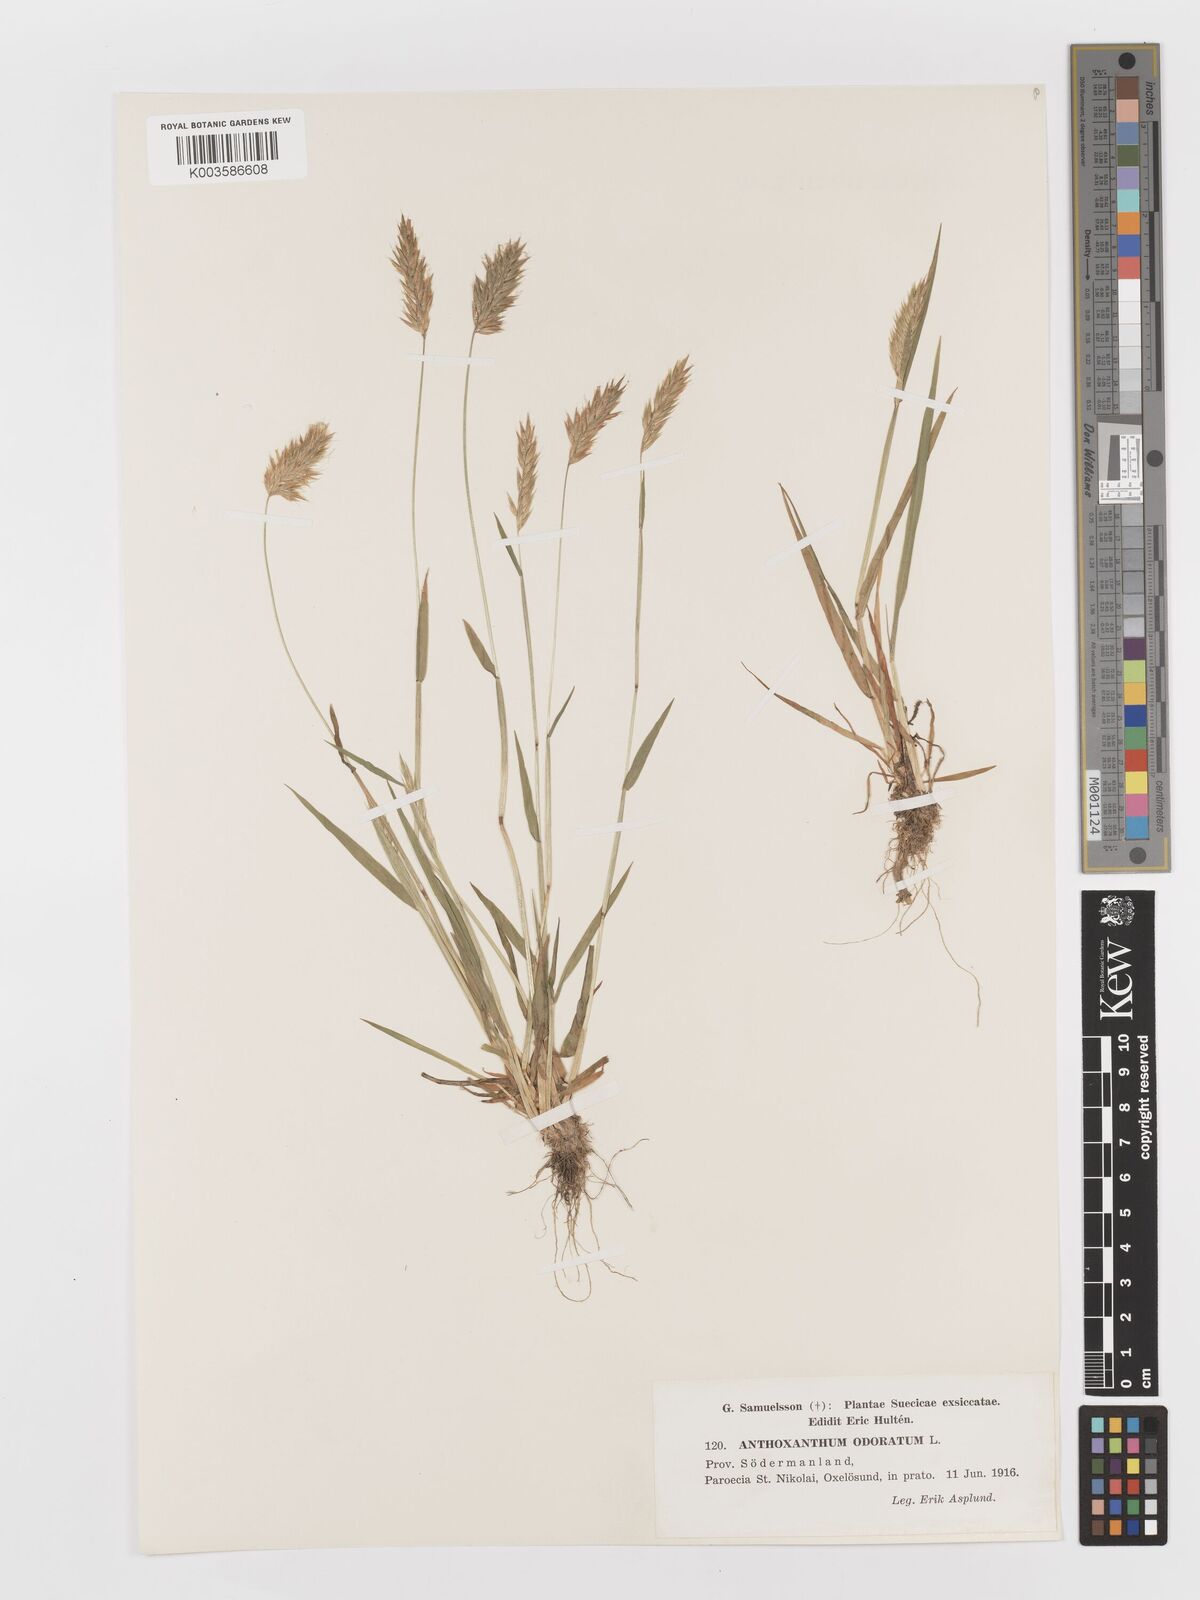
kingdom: Plantae
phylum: Tracheophyta
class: Liliopsida
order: Poales
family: Poaceae
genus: Anthoxanthum
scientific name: Anthoxanthum odoratum
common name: Sweet vernalgrass
